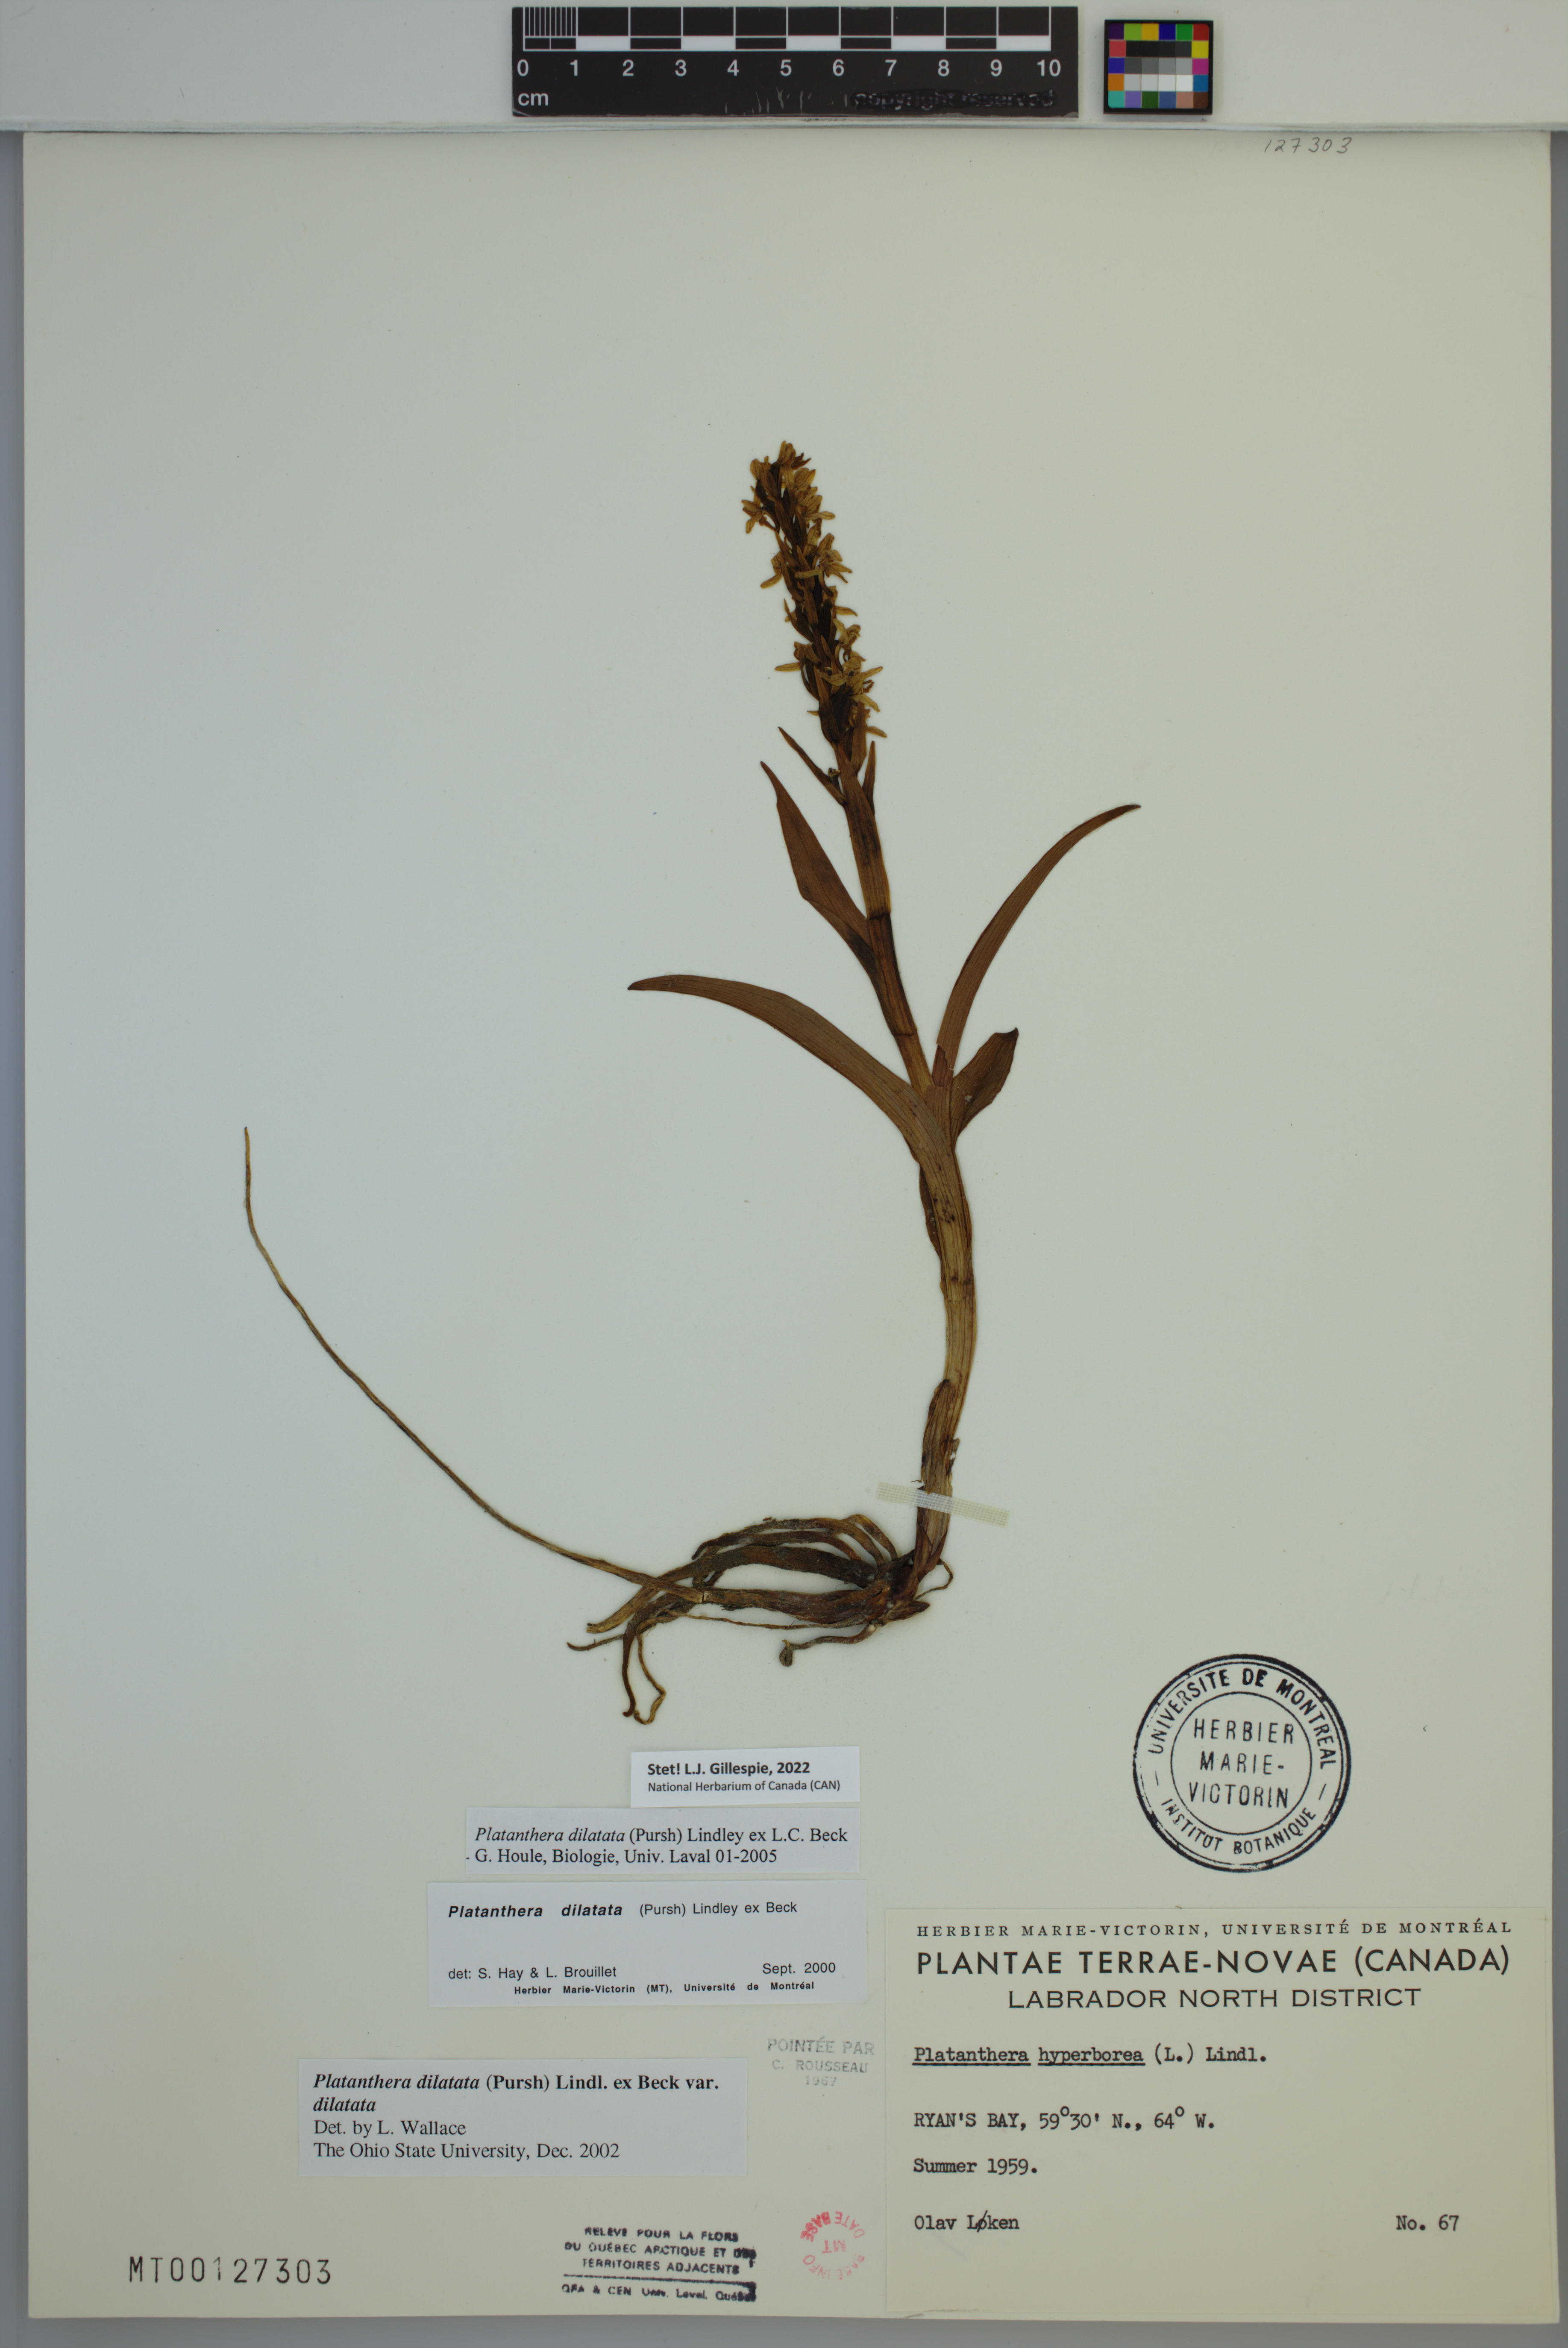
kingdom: Plantae
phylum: Tracheophyta
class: Liliopsida
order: Asparagales
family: Orchidaceae
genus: Platanthera
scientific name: Platanthera dilatata
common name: Bog candles
